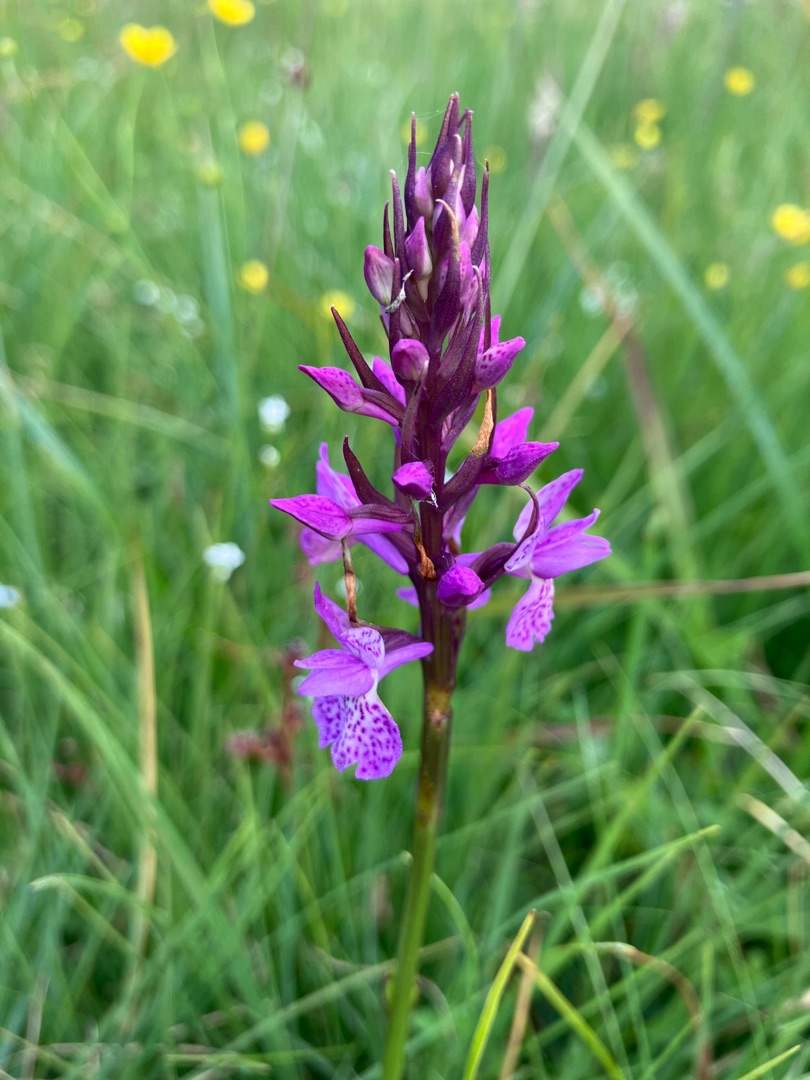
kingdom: Plantae
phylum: Tracheophyta
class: Liliopsida
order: Asparagales
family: Orchidaceae
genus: Dactylorhiza
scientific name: Dactylorhiza maculata
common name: Plettet gøgeurt
